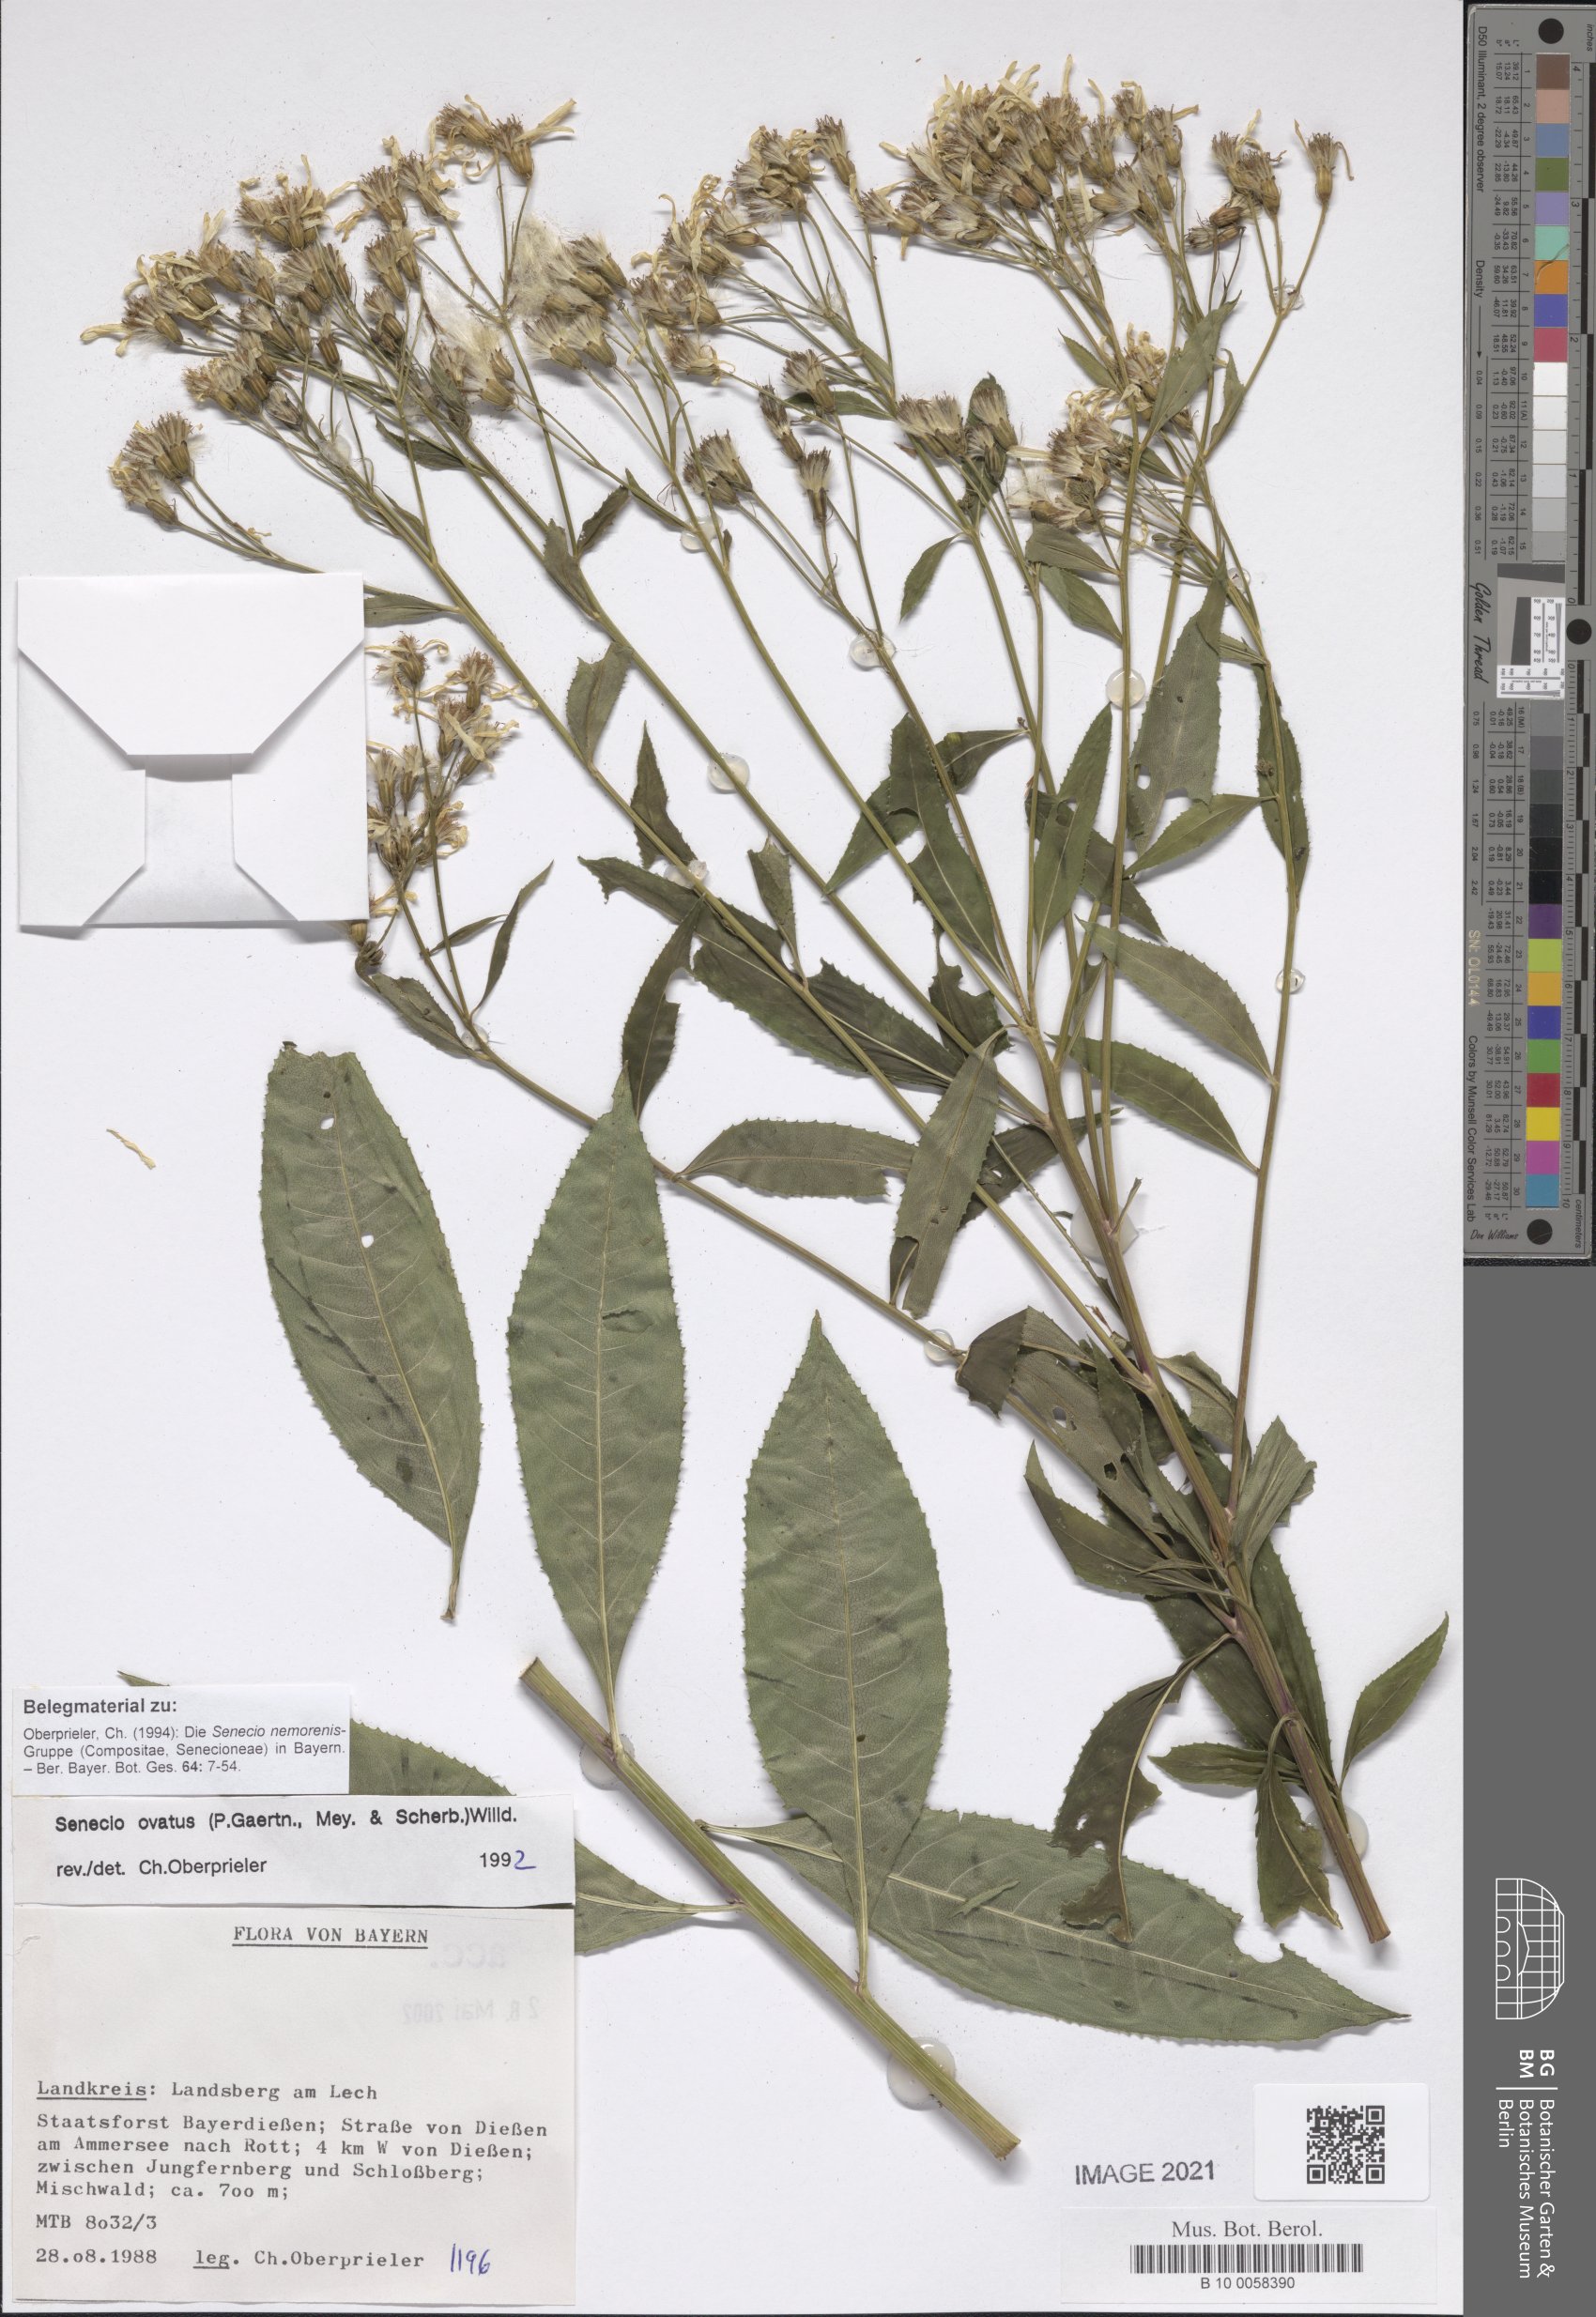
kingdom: Plantae
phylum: Tracheophyta
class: Magnoliopsida
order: Asterales
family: Asteraceae
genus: Senecio
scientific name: Senecio ovatus
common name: Wood ragwort
